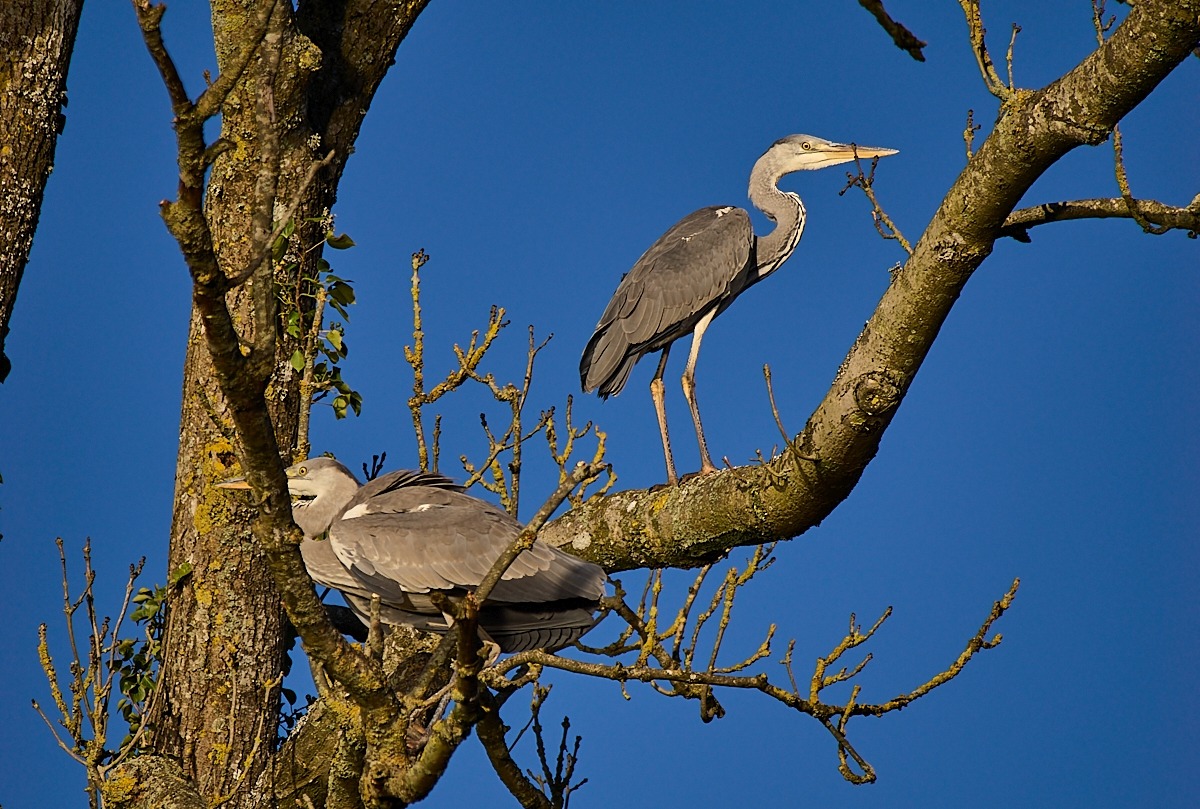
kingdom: Animalia
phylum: Chordata
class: Aves
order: Pelecaniformes
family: Ardeidae
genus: Ardea
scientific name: Ardea cinerea
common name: Fiskehejre
